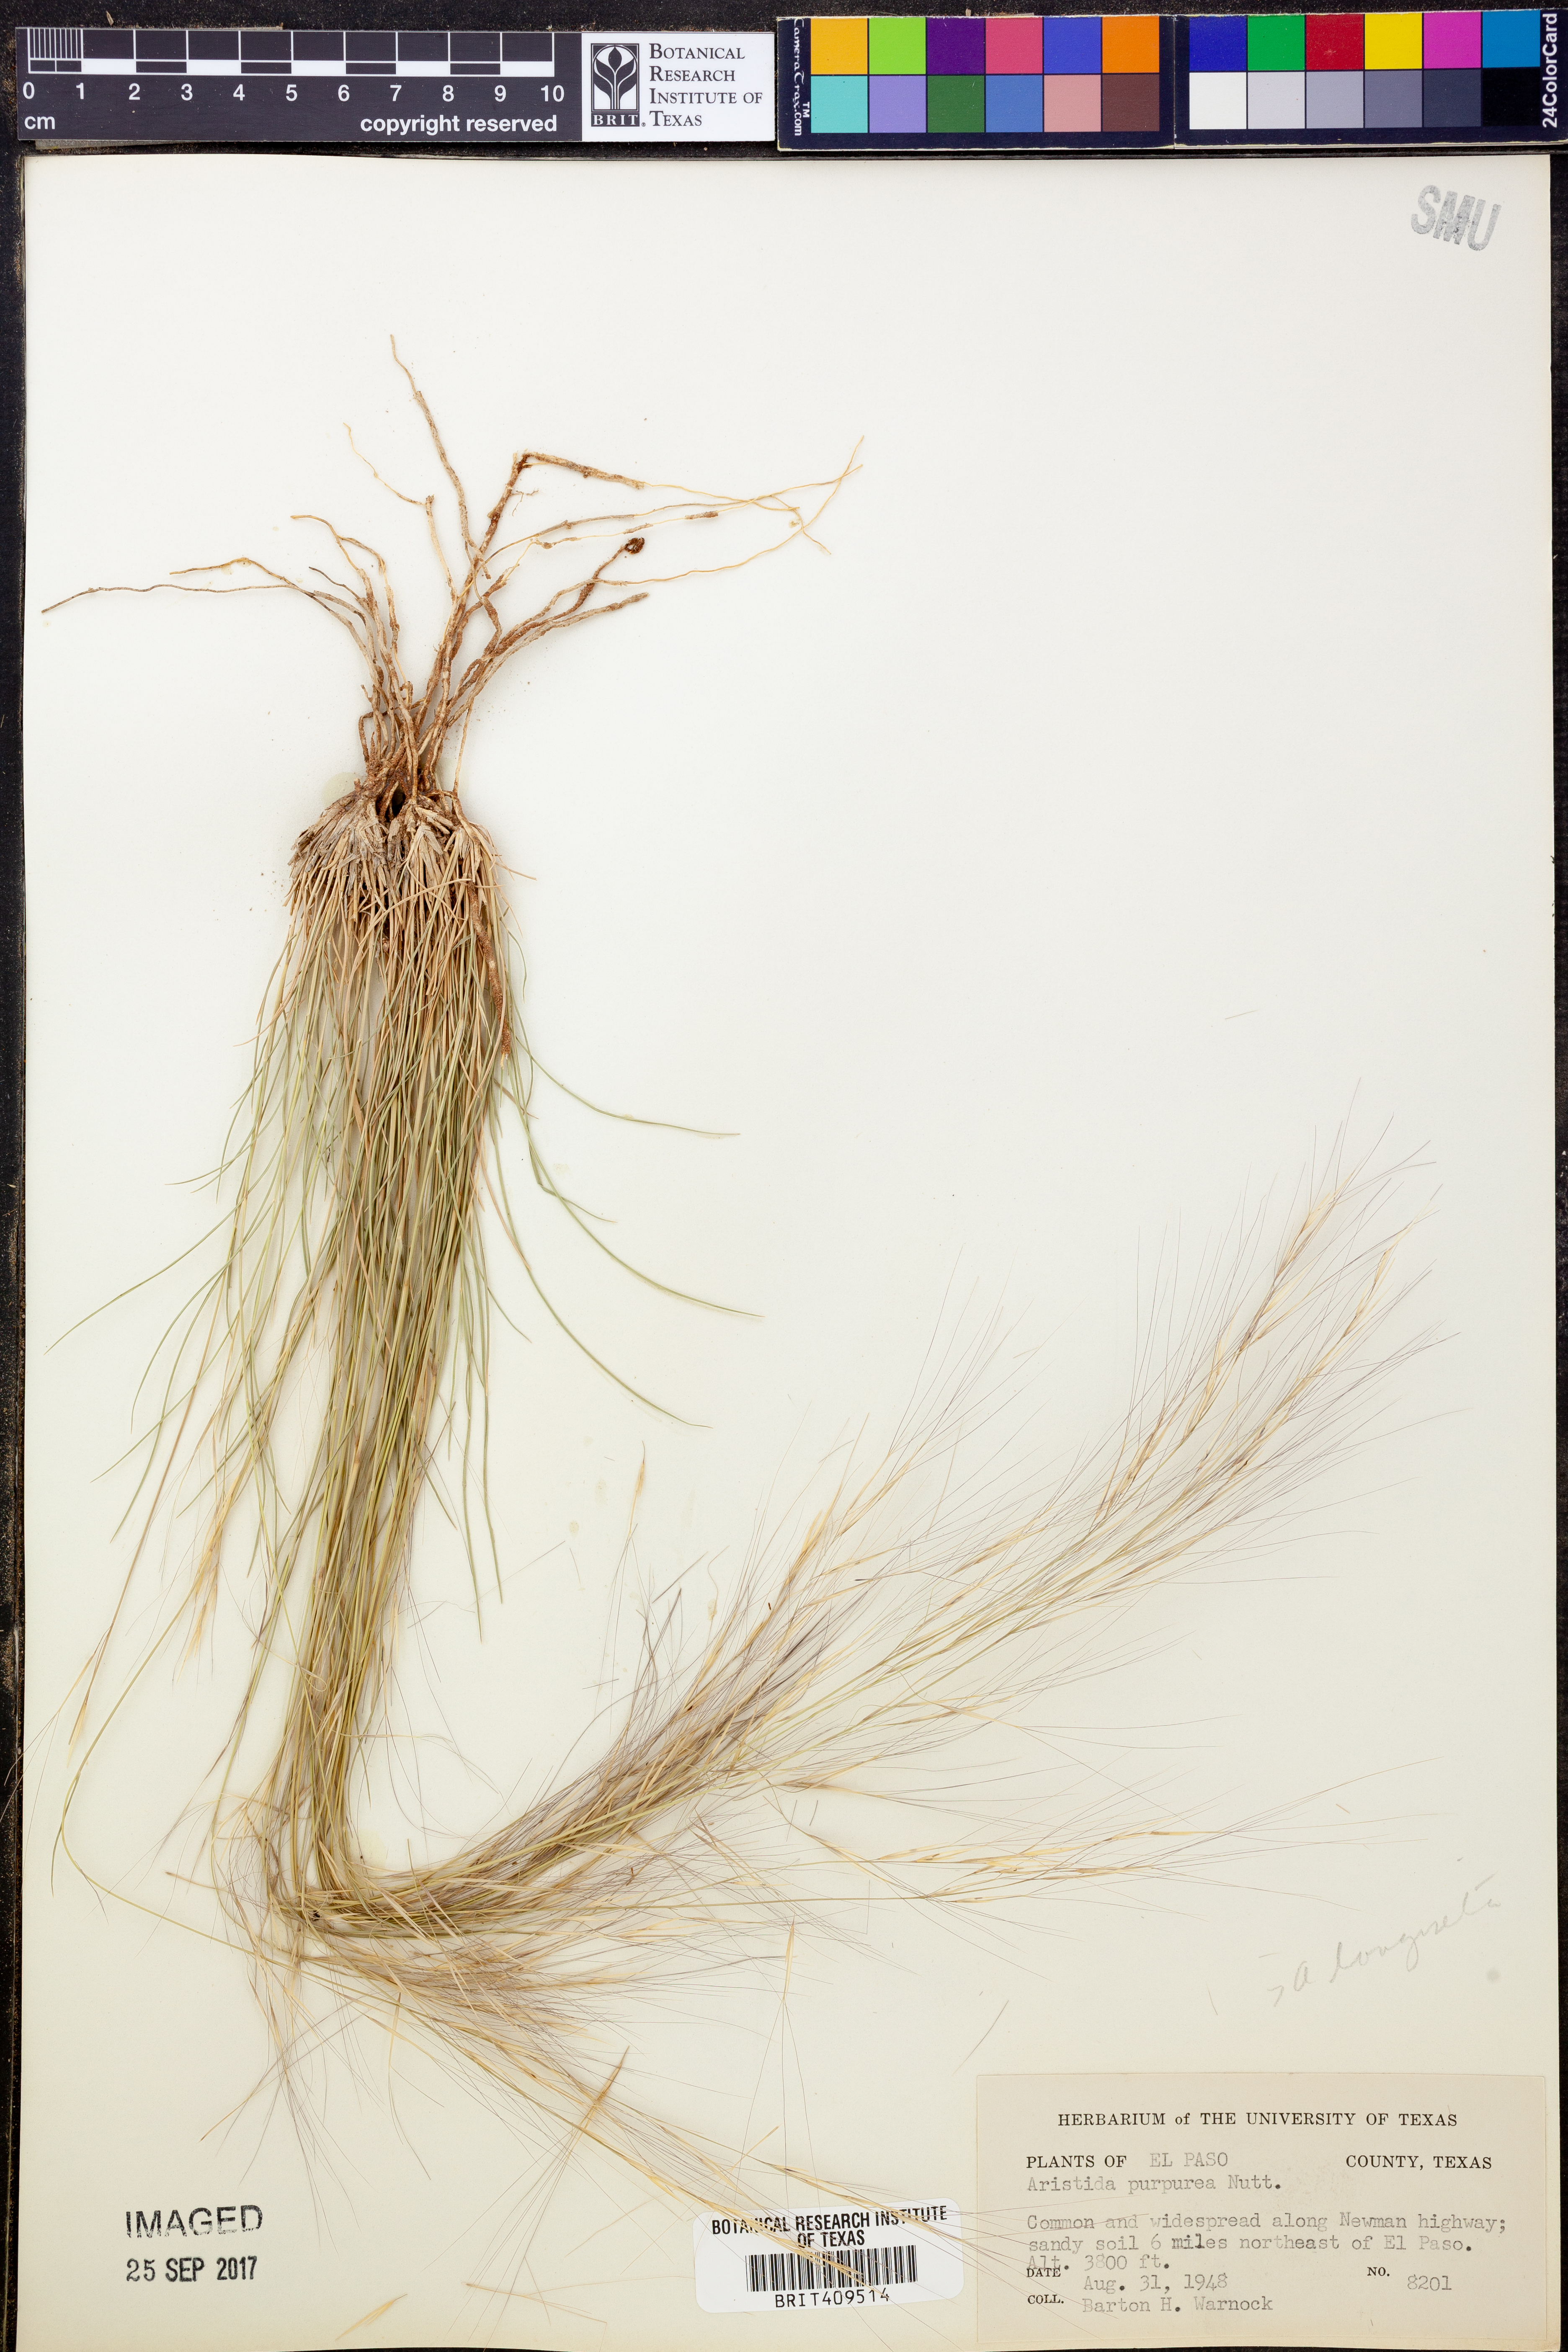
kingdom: Plantae
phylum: Tracheophyta
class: Liliopsida
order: Poales
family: Poaceae
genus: Aristida
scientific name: Aristida purpurea
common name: Purple threeawn
